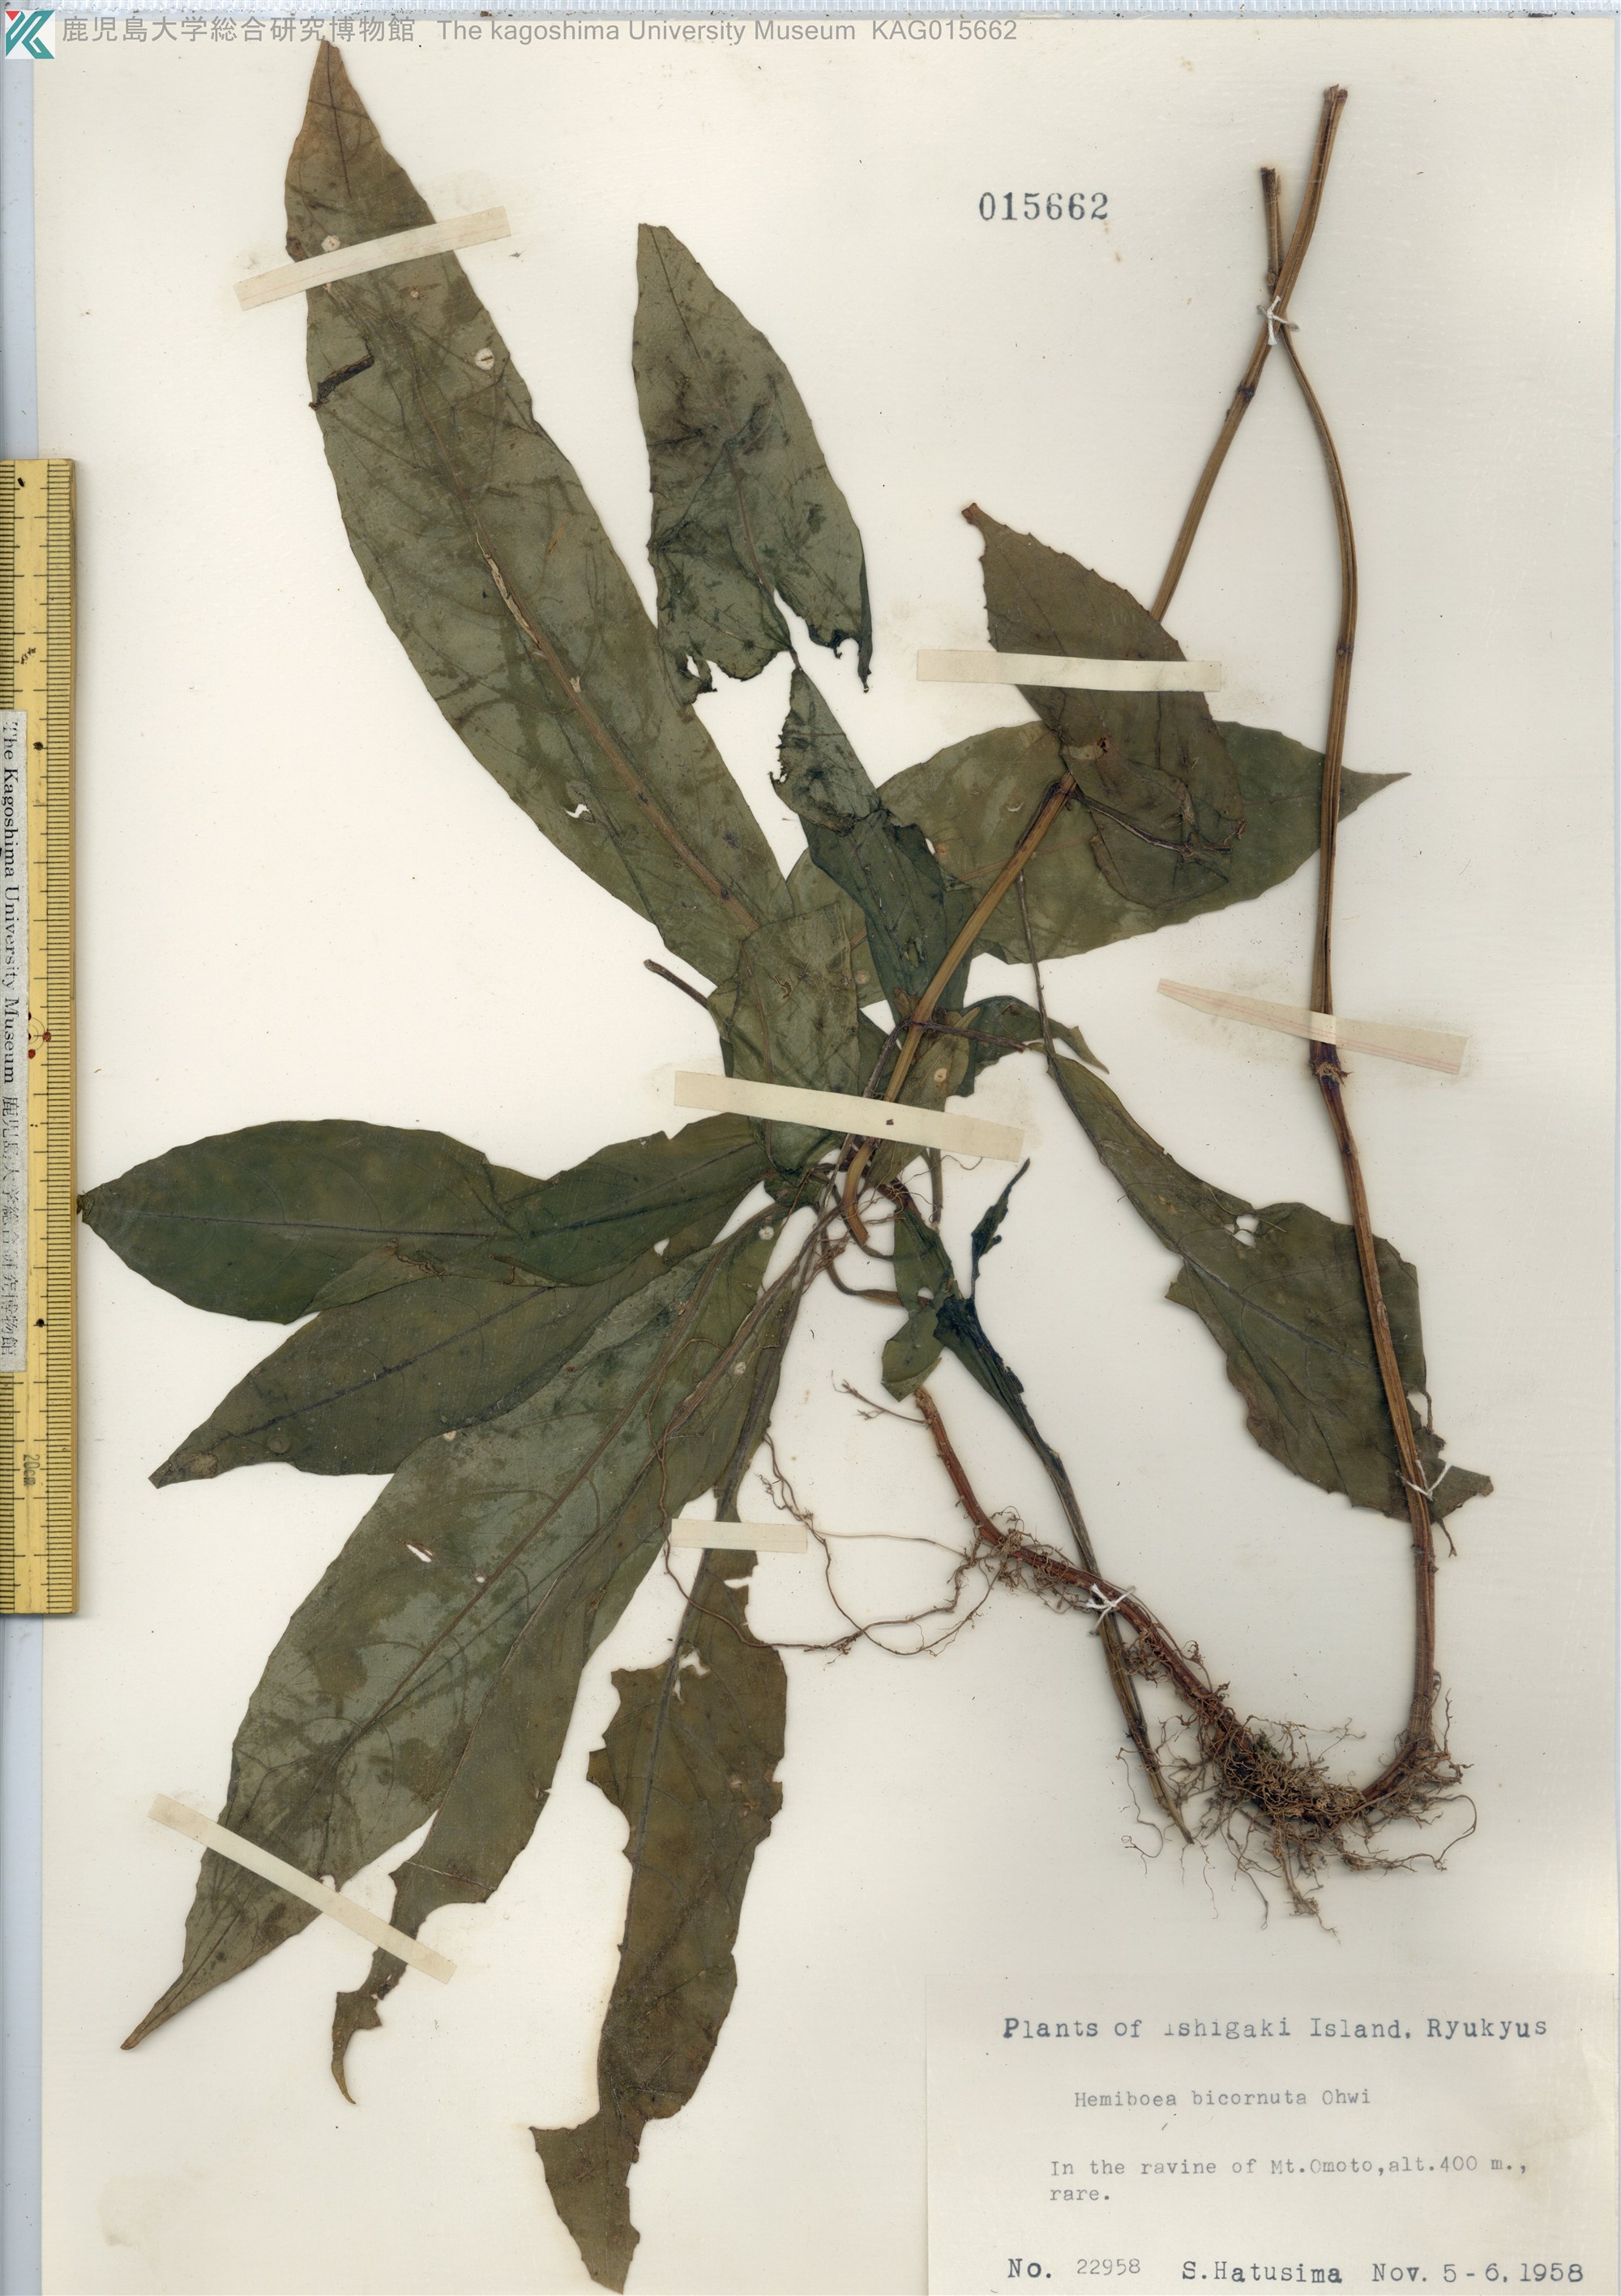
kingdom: Plantae
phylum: Tracheophyta
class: Magnoliopsida
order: Lamiales
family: Gesneriaceae
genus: Hemiboea
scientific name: Hemiboea bicornuta
